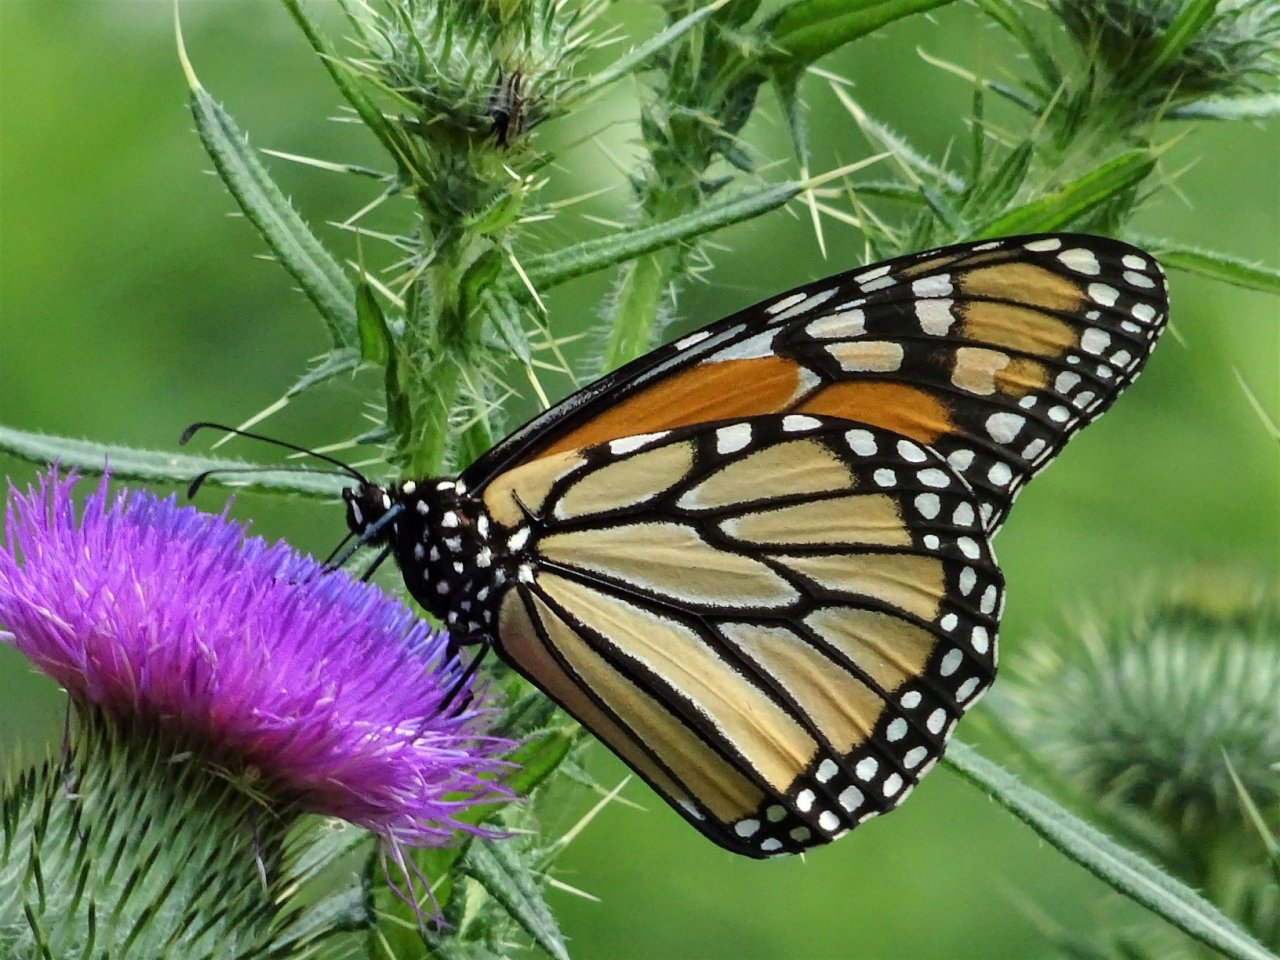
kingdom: Animalia
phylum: Arthropoda
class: Insecta
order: Lepidoptera
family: Nymphalidae
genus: Danaus
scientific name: Danaus plexippus
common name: Monarch
